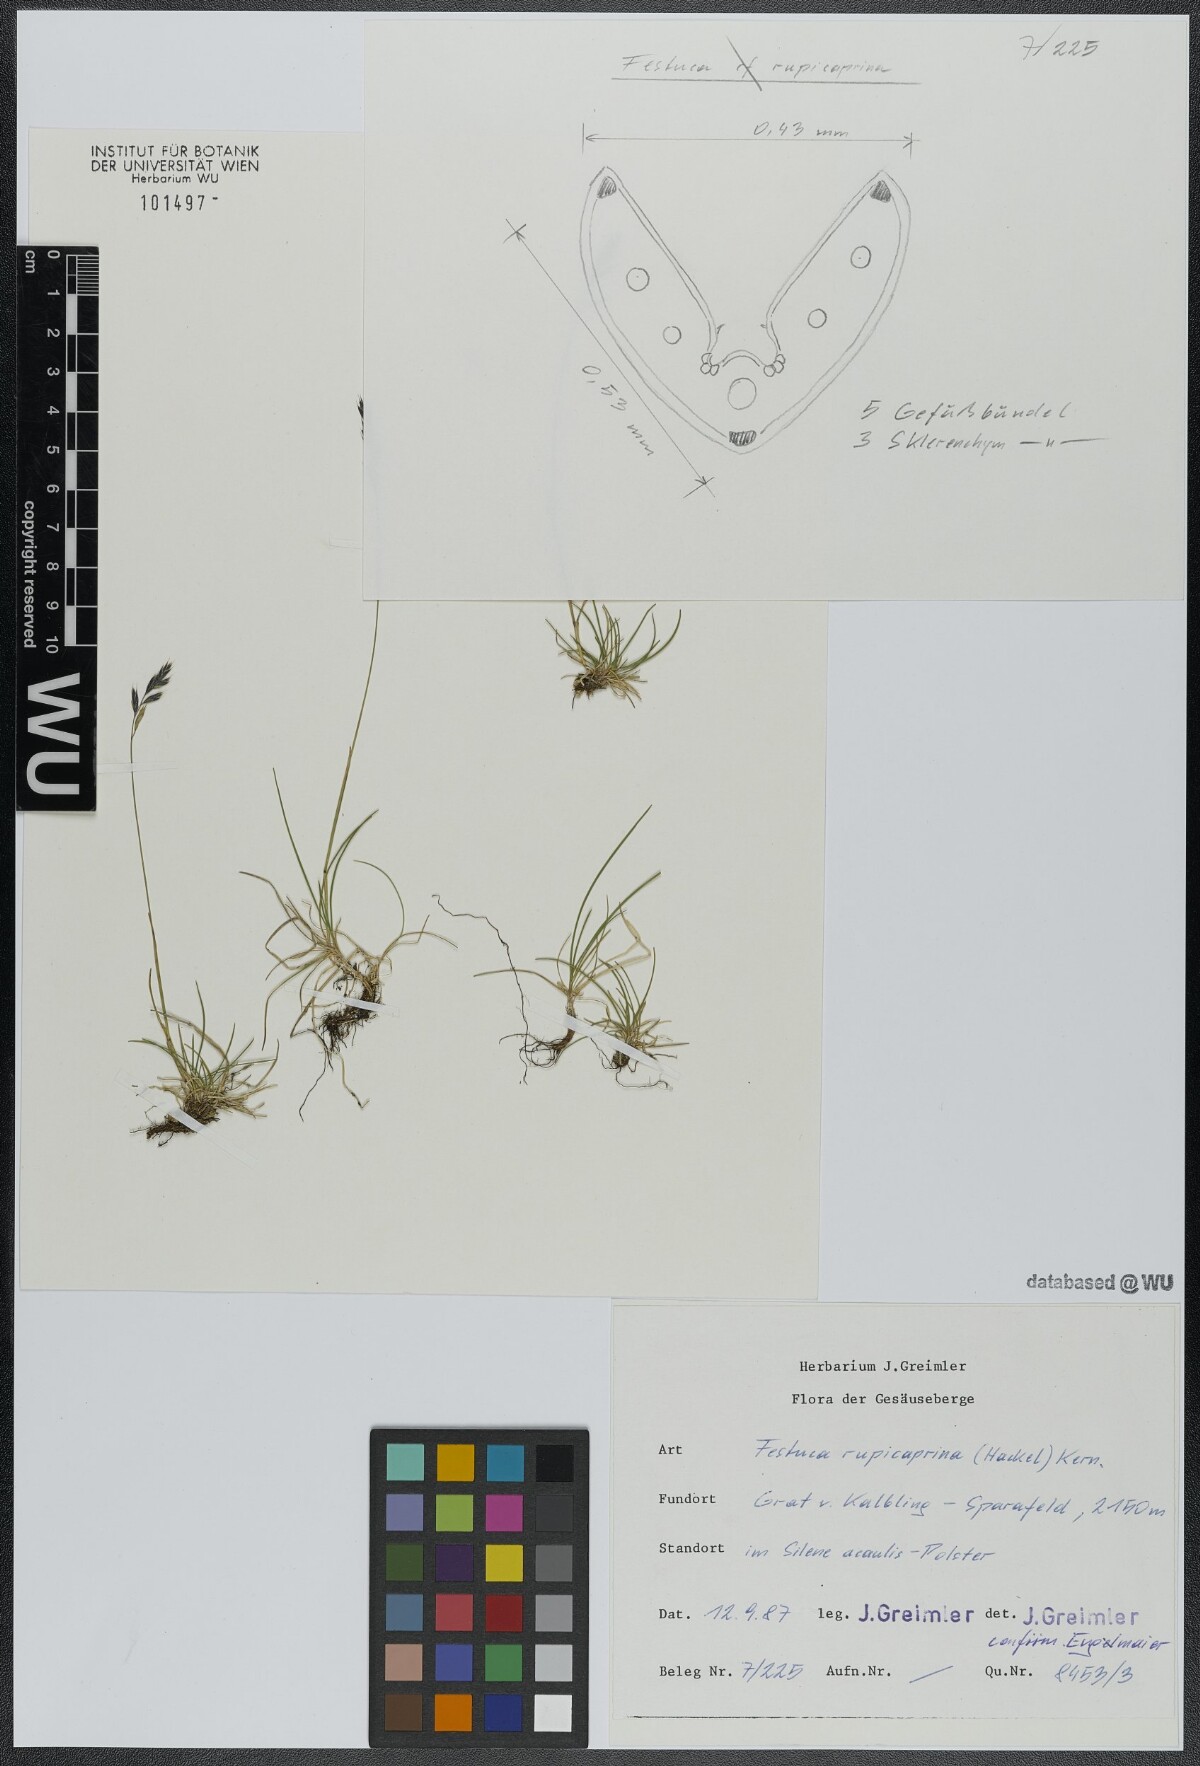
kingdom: Plantae
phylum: Tracheophyta
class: Liliopsida
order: Poales
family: Poaceae
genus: Festuca
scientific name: Festuca rupicaprina
